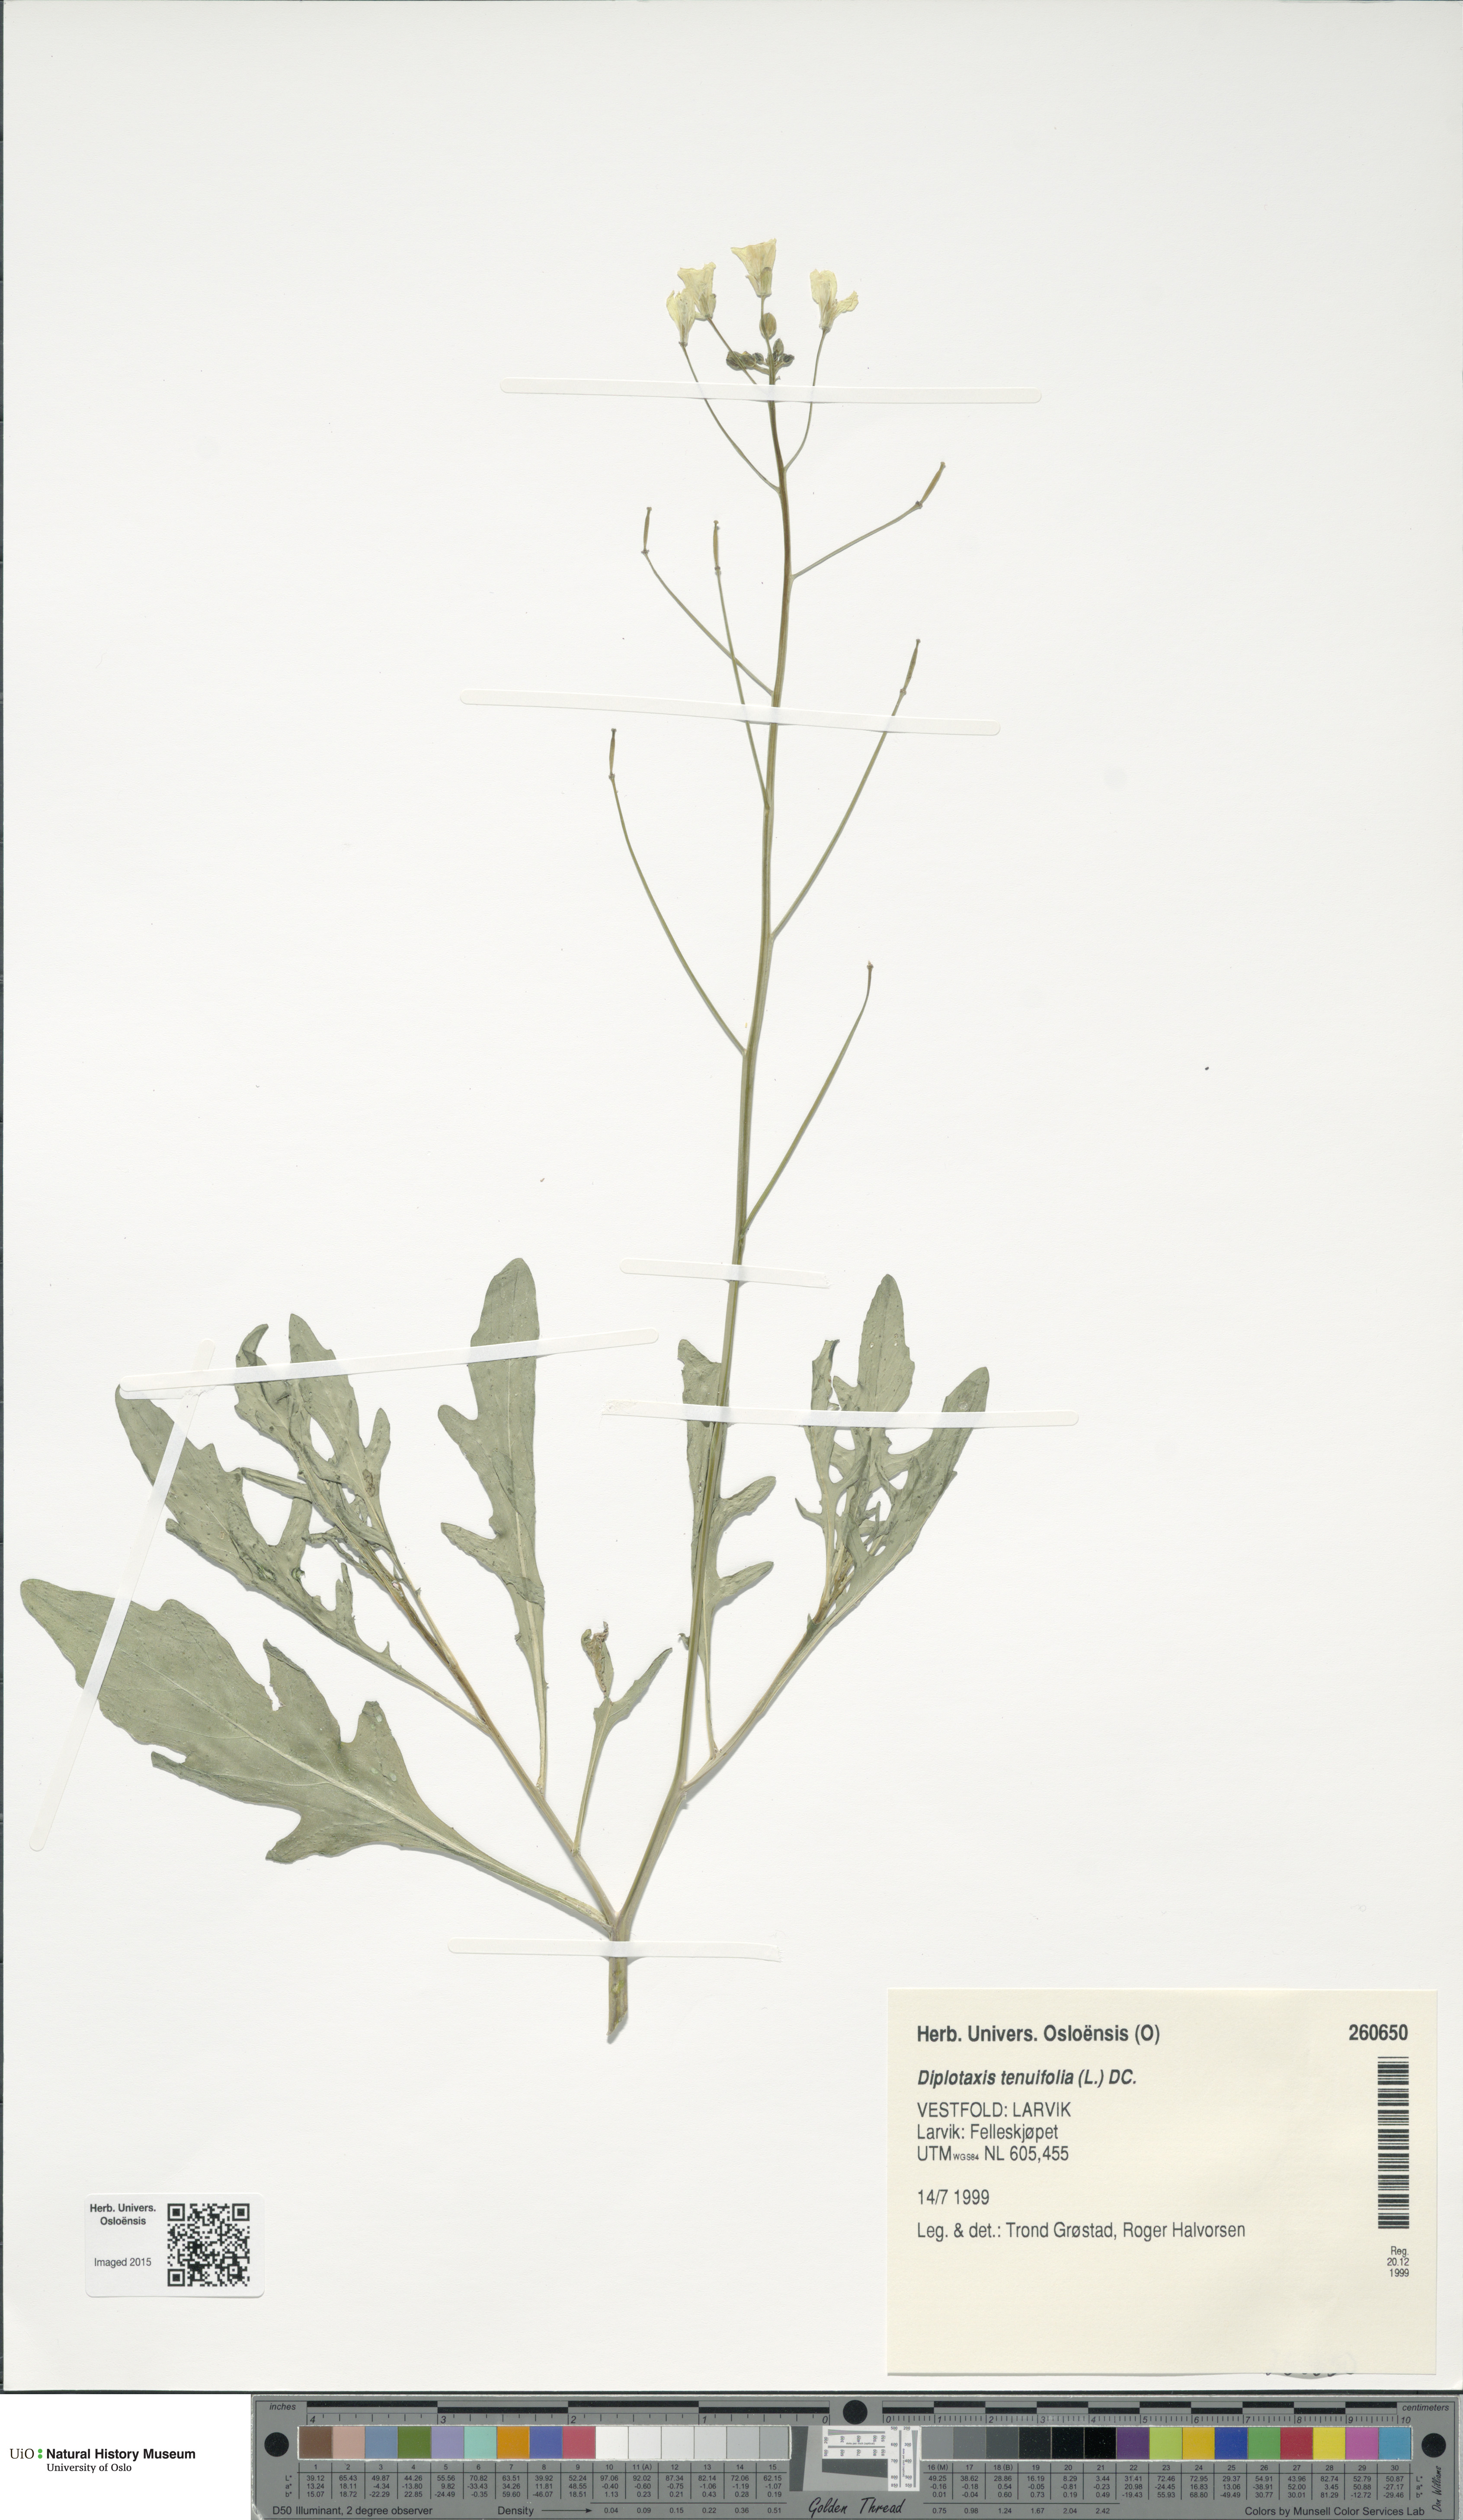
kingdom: Plantae
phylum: Tracheophyta
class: Magnoliopsida
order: Brassicales
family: Brassicaceae
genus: Diplotaxis
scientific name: Diplotaxis tenuifolia
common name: Perennial wall-rocket
